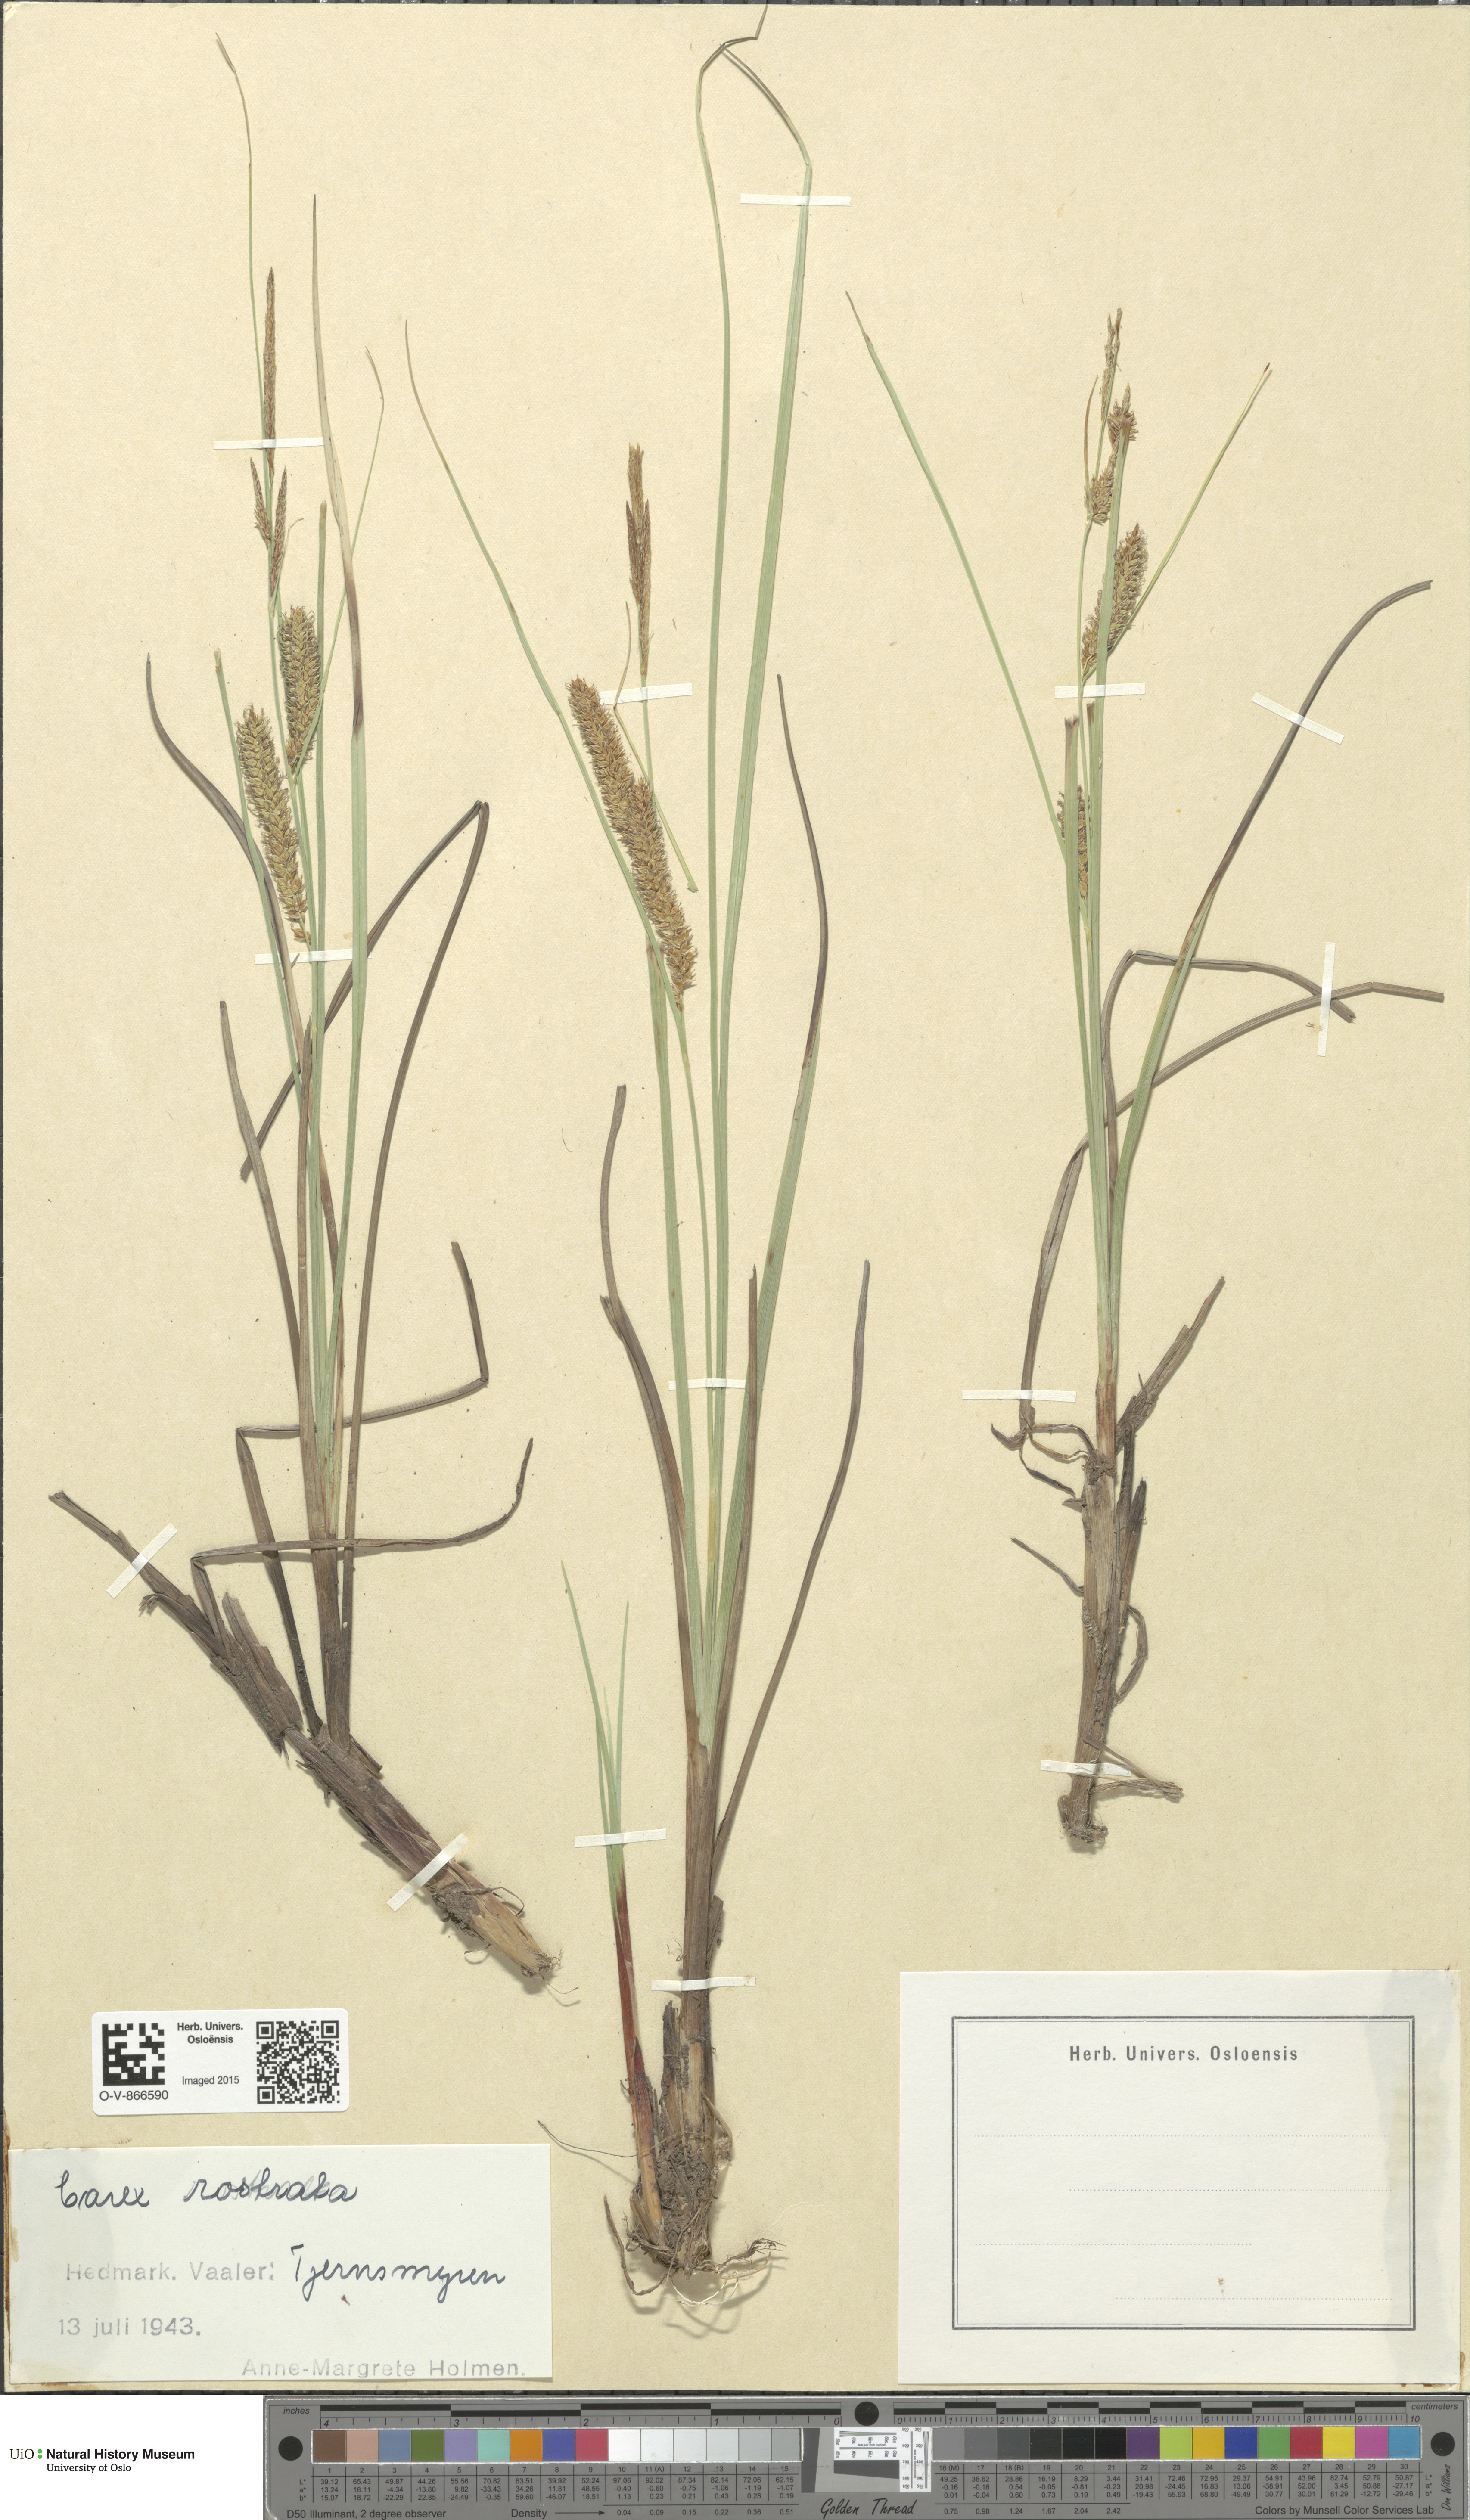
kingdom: Plantae
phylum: Tracheophyta
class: Liliopsida
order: Poales
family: Cyperaceae
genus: Carex
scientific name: Carex rostrata
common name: Bottle sedge
